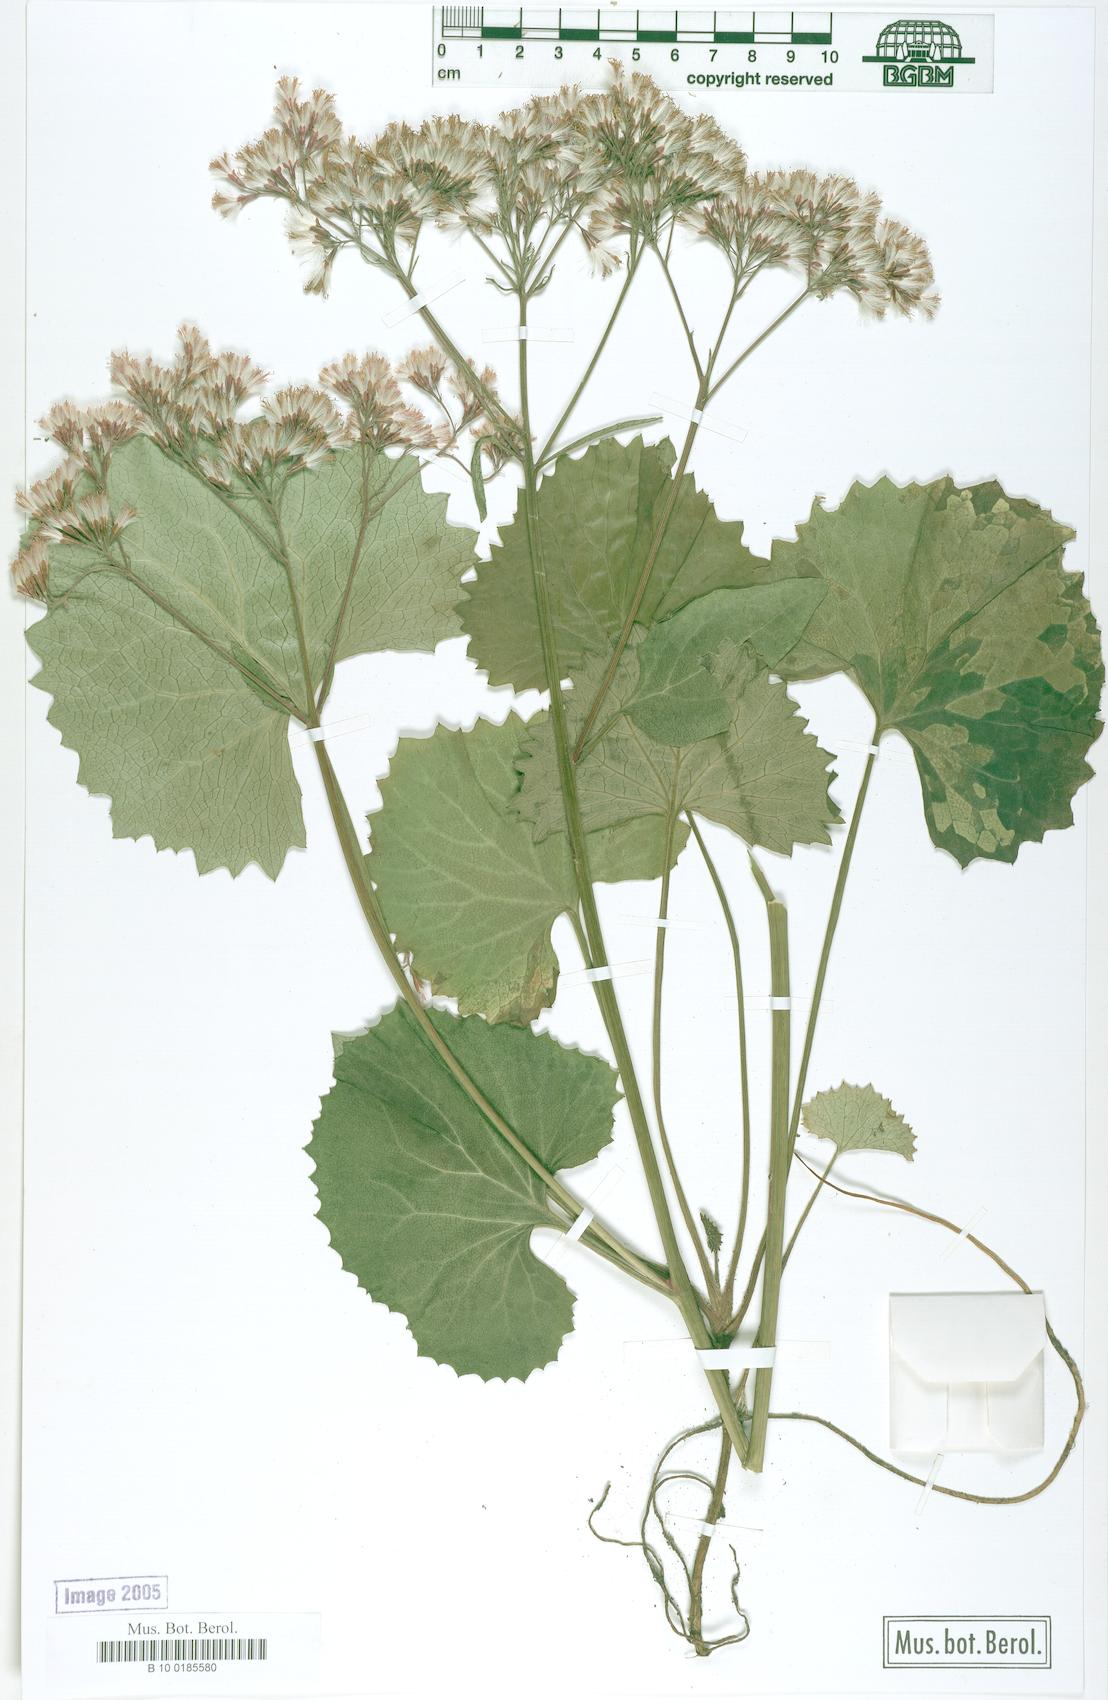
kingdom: Plantae
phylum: Tracheophyta
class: Magnoliopsida
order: Asterales
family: Asteraceae
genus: Adenostyles
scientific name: Adenostyles alpina
